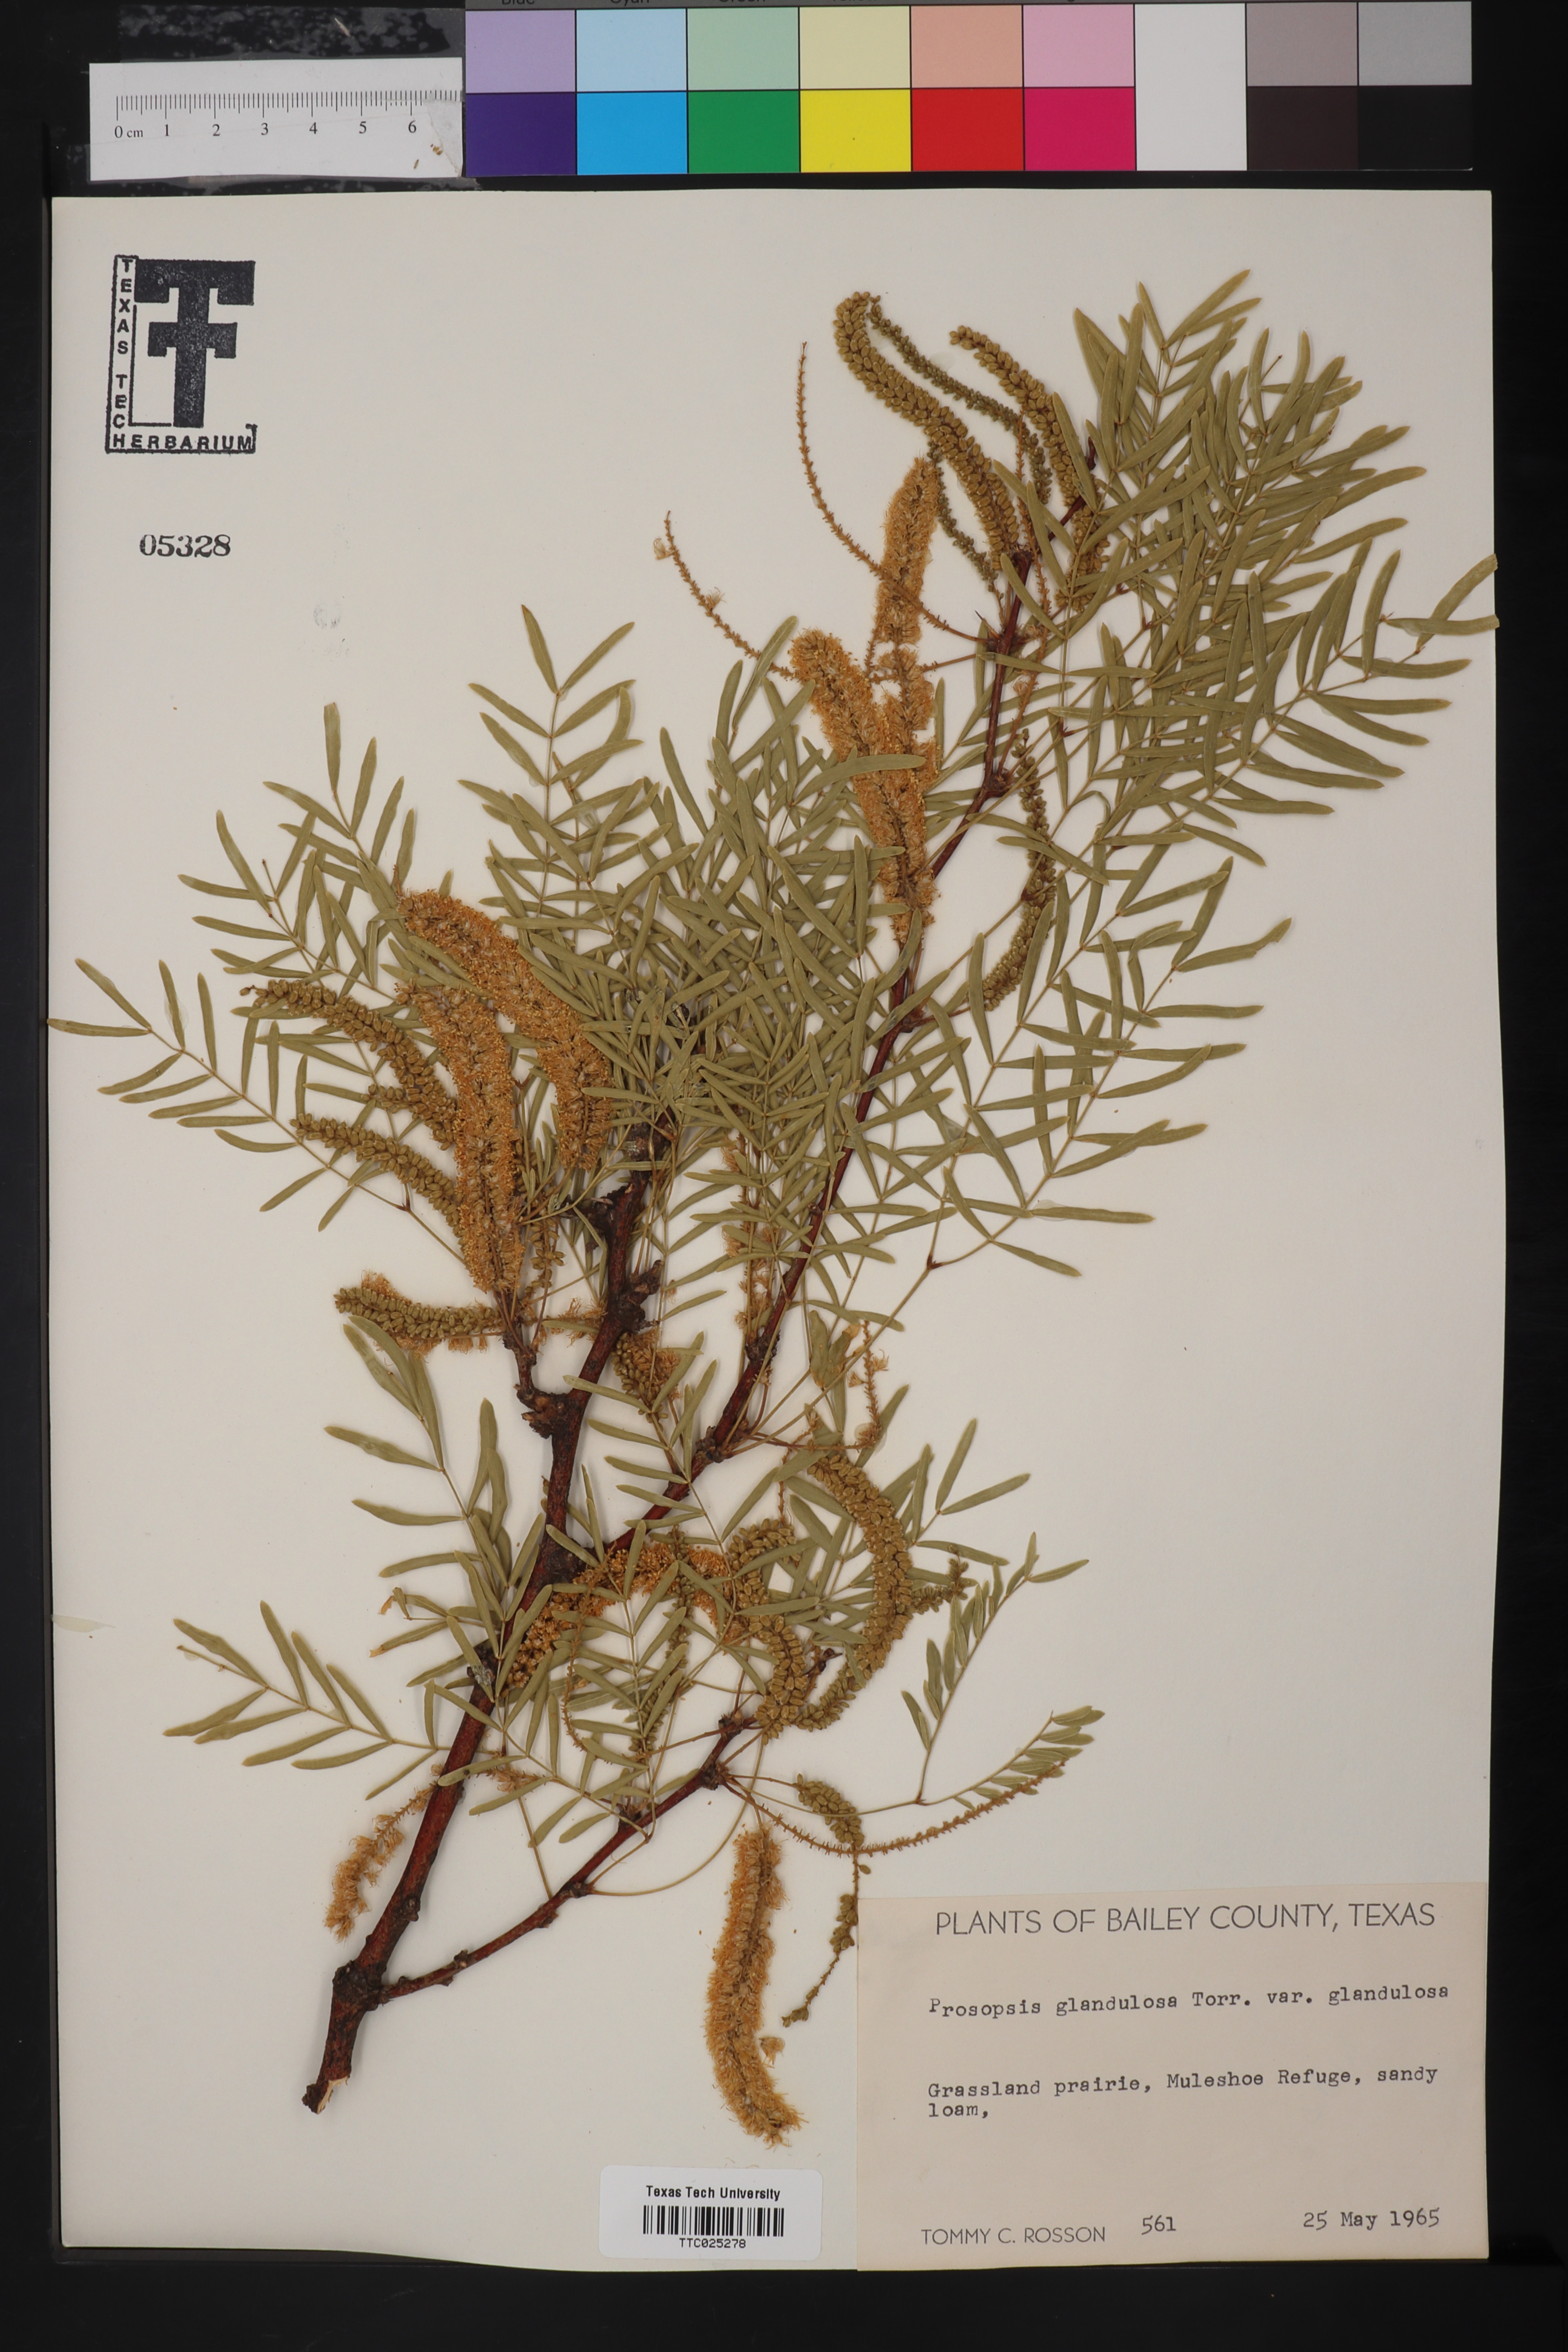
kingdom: Plantae
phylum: Tracheophyta
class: Magnoliopsida
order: Fabales
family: Fabaceae
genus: Prosopis
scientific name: Prosopis glandulosa
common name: Honey mesquite
